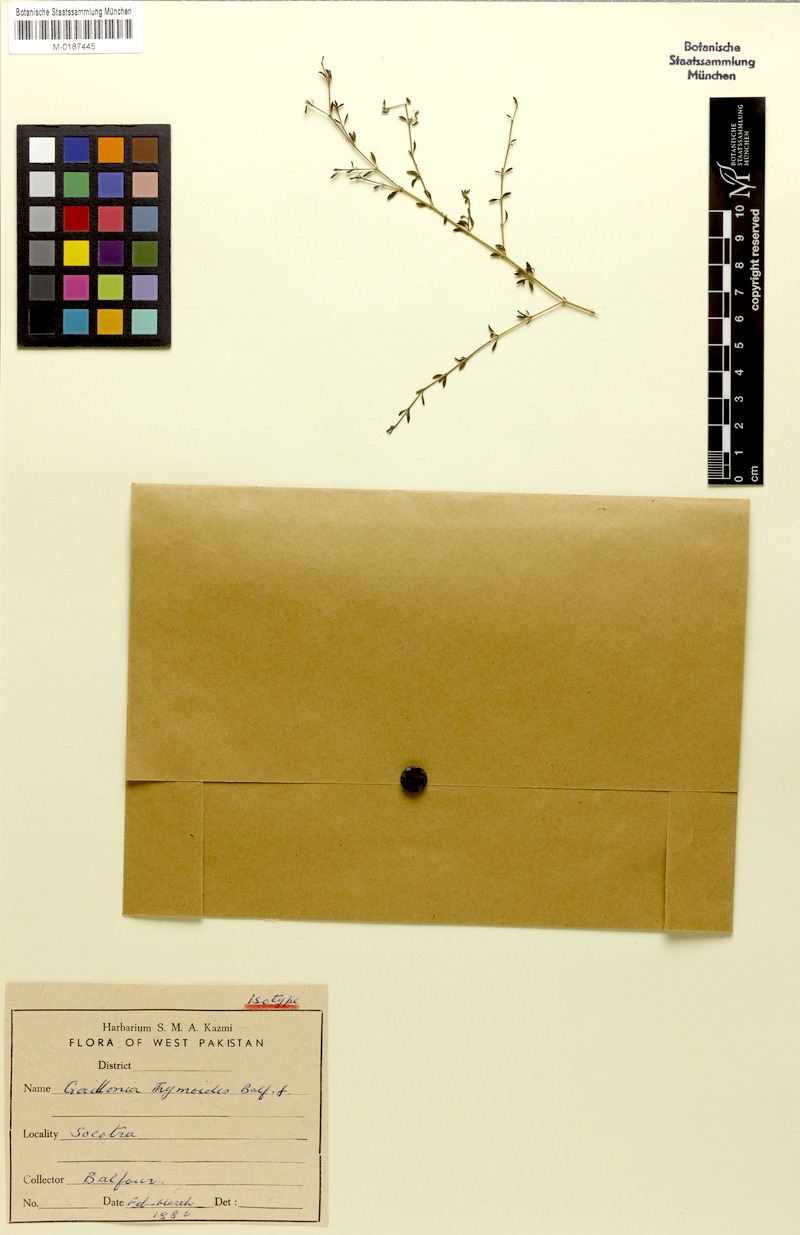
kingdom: Plantae
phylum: Tracheophyta
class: Magnoliopsida
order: Gentianales
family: Rubiaceae
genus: Plocama
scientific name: Plocama thymoides
